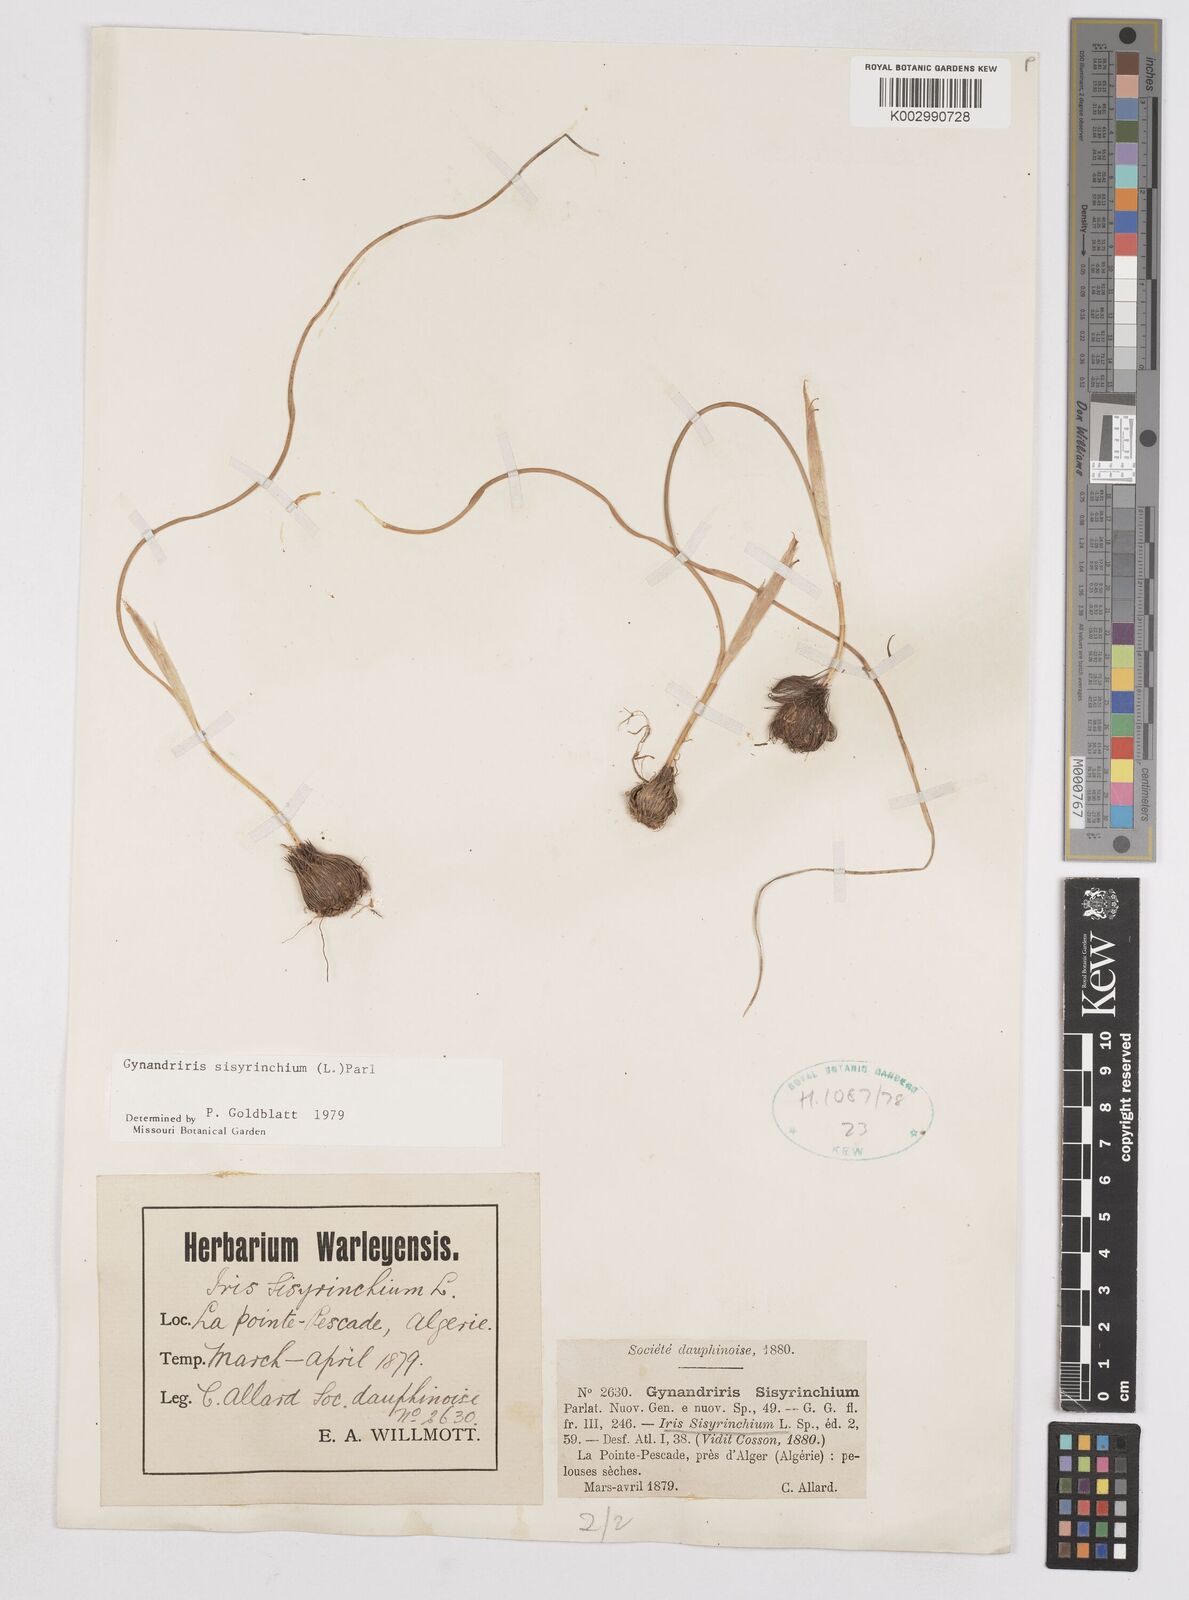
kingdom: Plantae
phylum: Tracheophyta
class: Liliopsida
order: Asparagales
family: Iridaceae
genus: Moraea
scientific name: Moraea sisyrinchium
